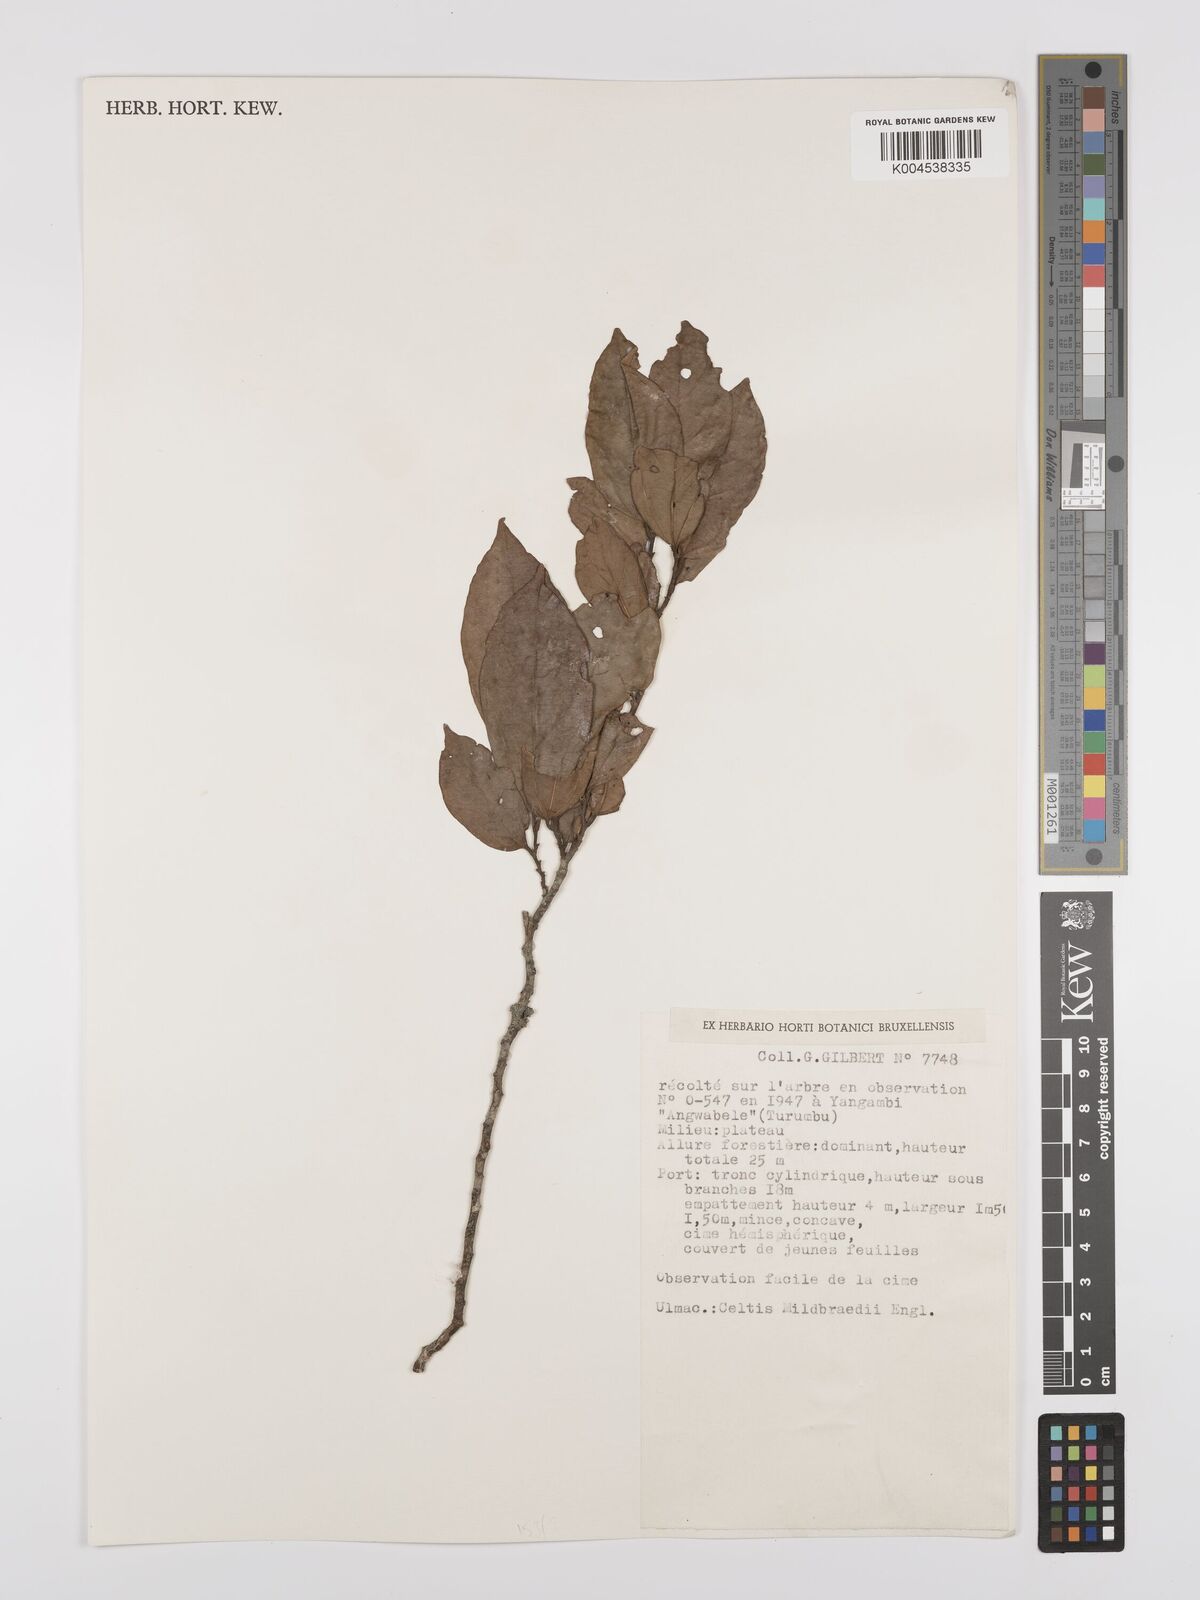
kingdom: Plantae
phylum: Tracheophyta
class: Magnoliopsida
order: Rosales
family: Cannabaceae
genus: Celtis
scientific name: Celtis mildbraedii
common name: Red-fruited stinkwood
